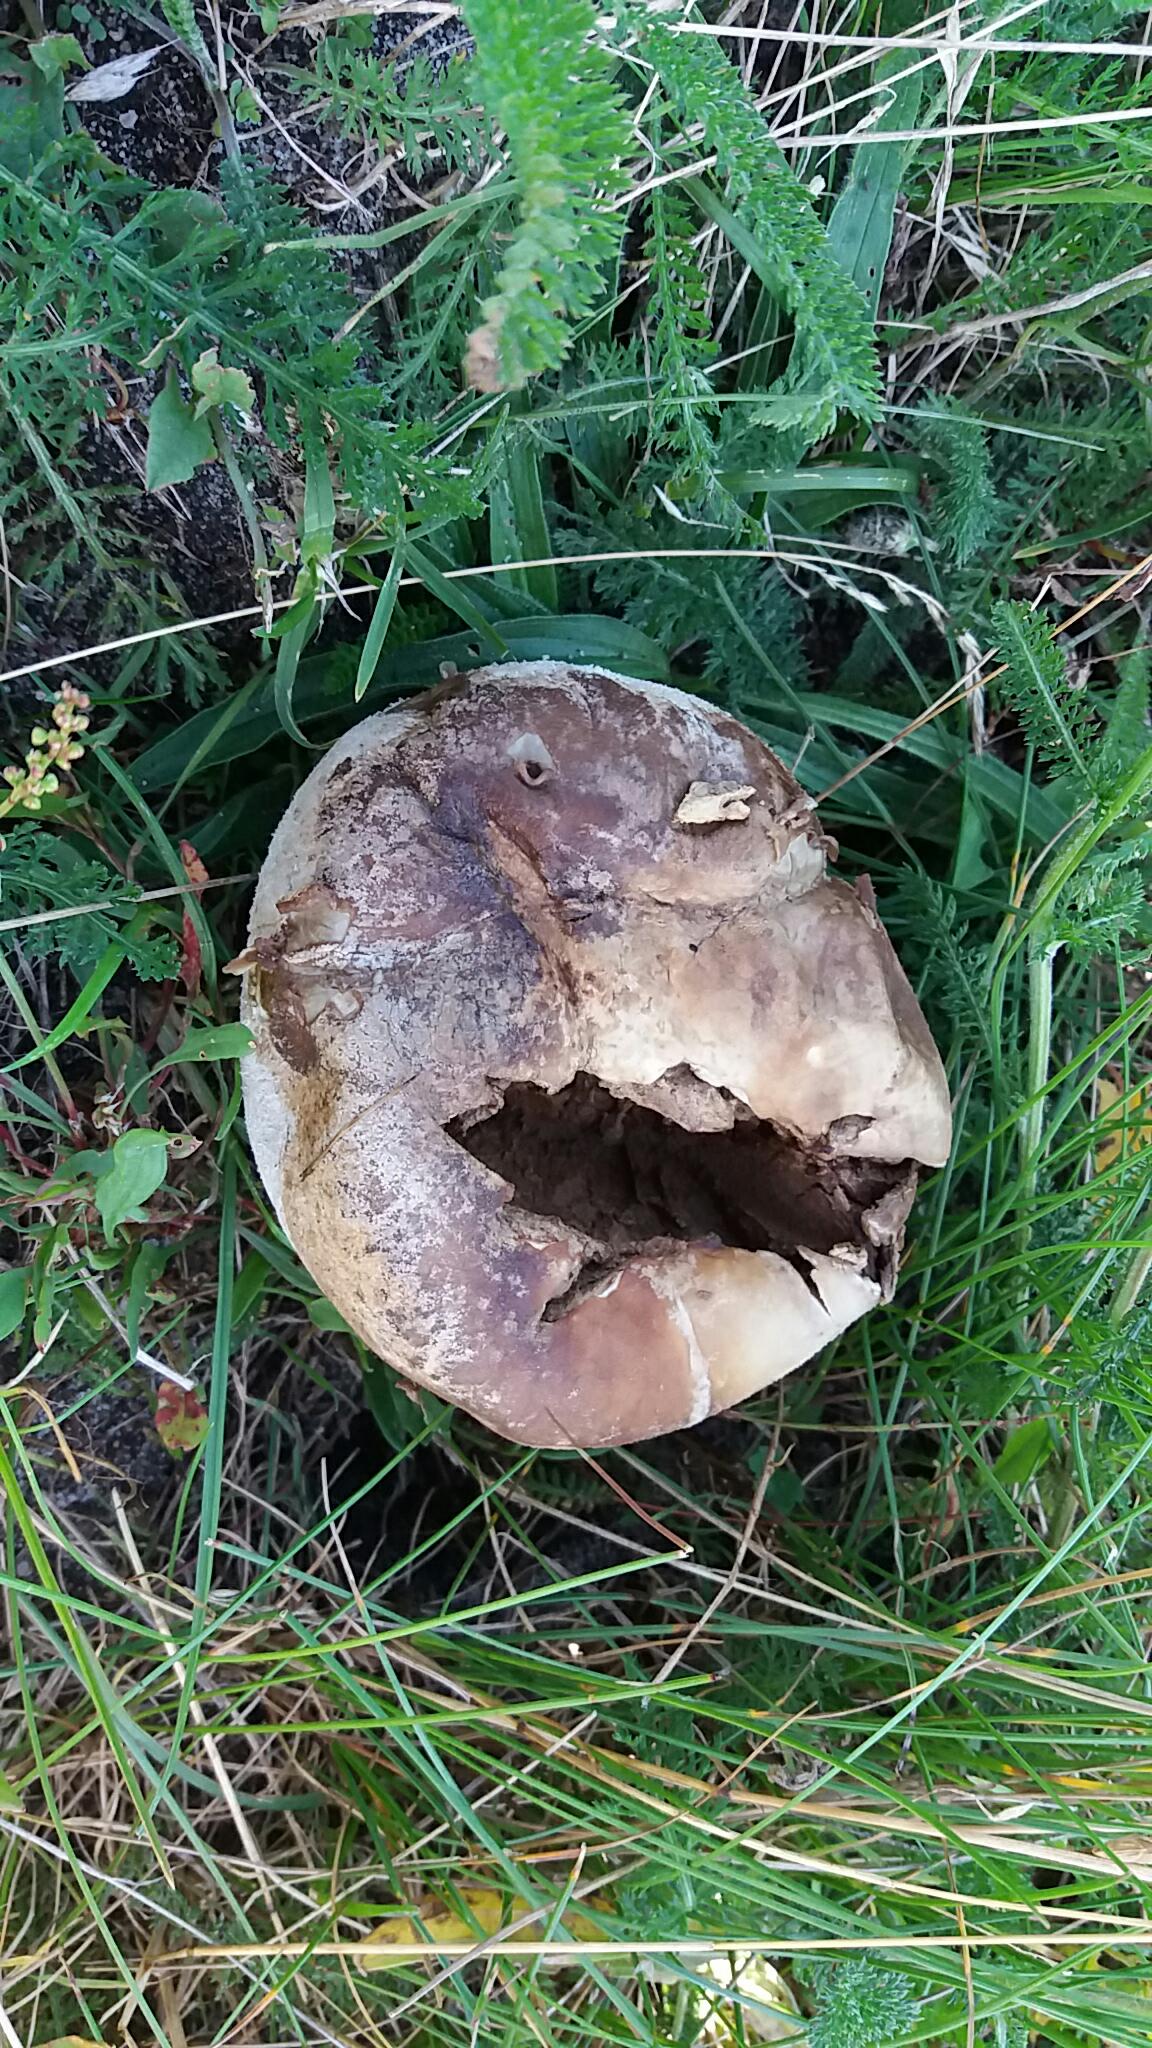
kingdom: Fungi
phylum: Basidiomycota
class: Agaricomycetes
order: Agaricales
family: Lycoperdaceae
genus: Bovistella
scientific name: Bovistella utriformis
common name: skællet støvbold
